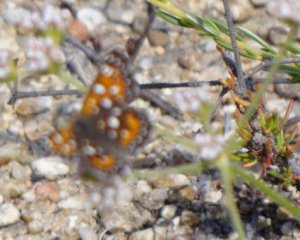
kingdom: Animalia
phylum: Arthropoda
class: Insecta
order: Lepidoptera
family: Riodinidae
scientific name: Riodinidae
